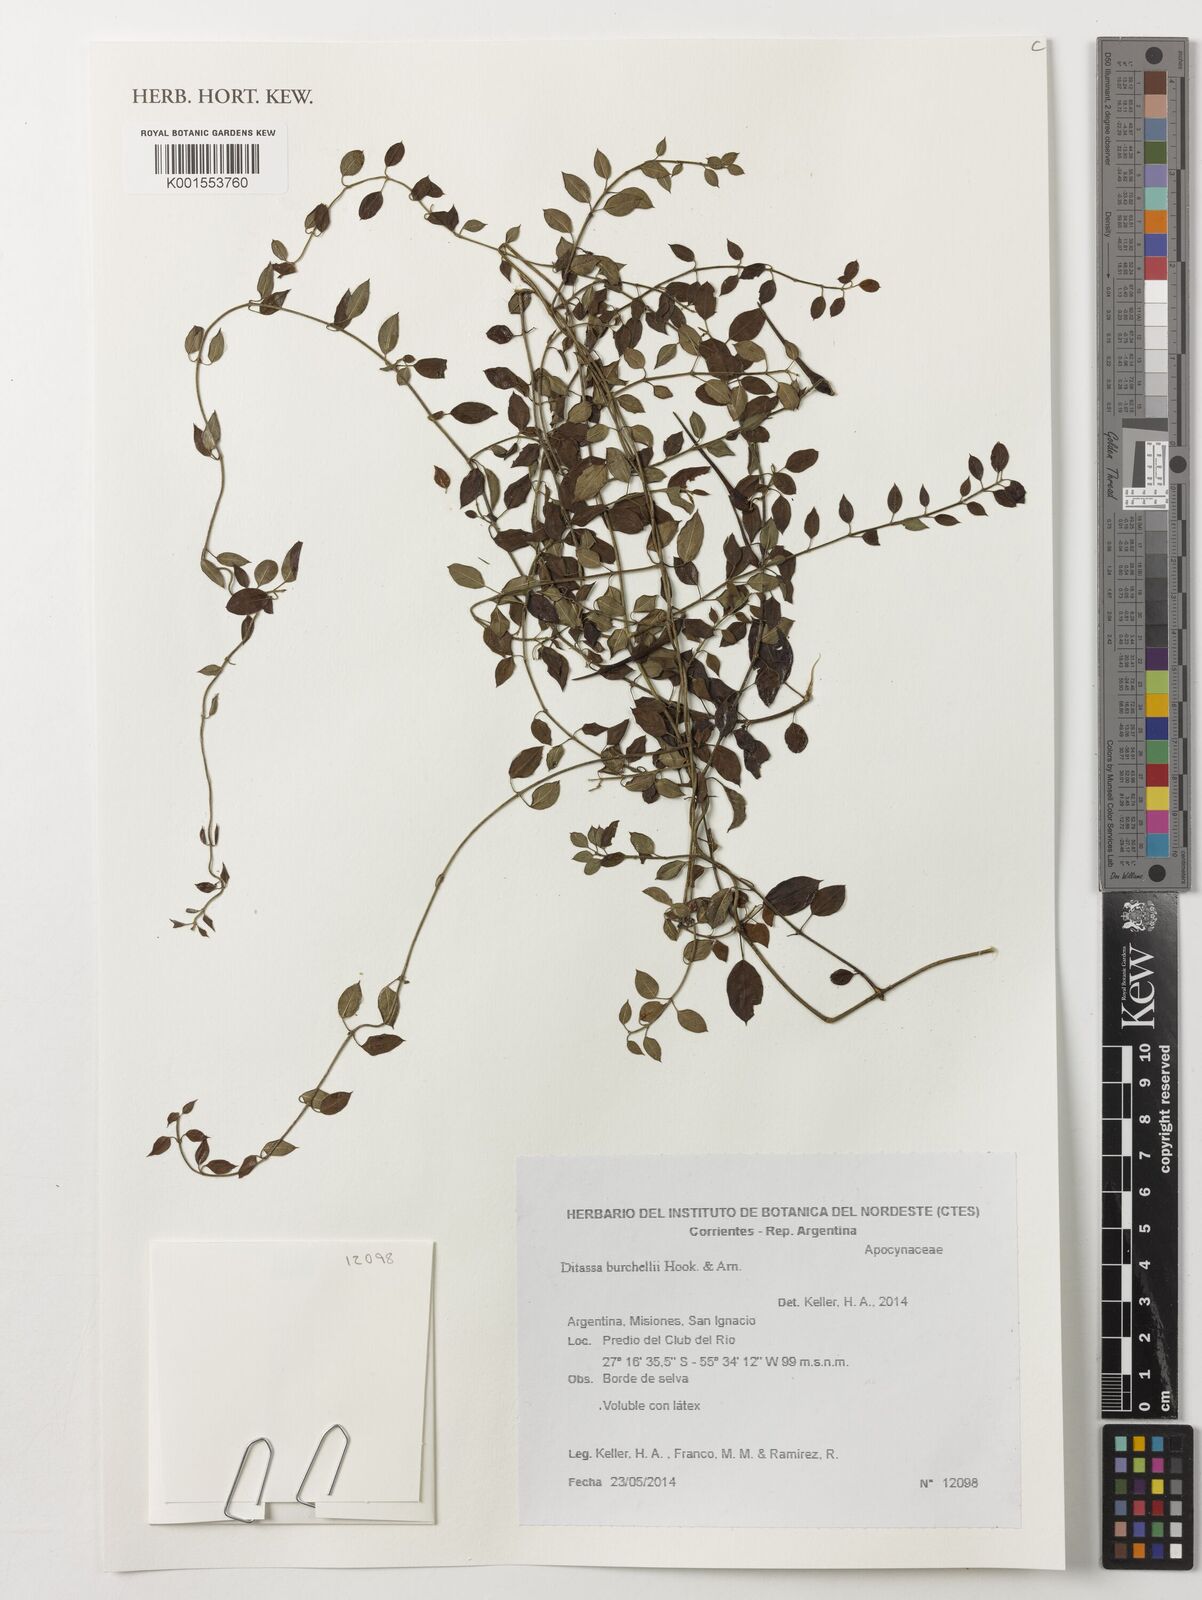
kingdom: Plantae
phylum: Tracheophyta
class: Magnoliopsida
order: Gentianales
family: Apocynaceae
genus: Metastelma
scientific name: Metastelma burchellii
